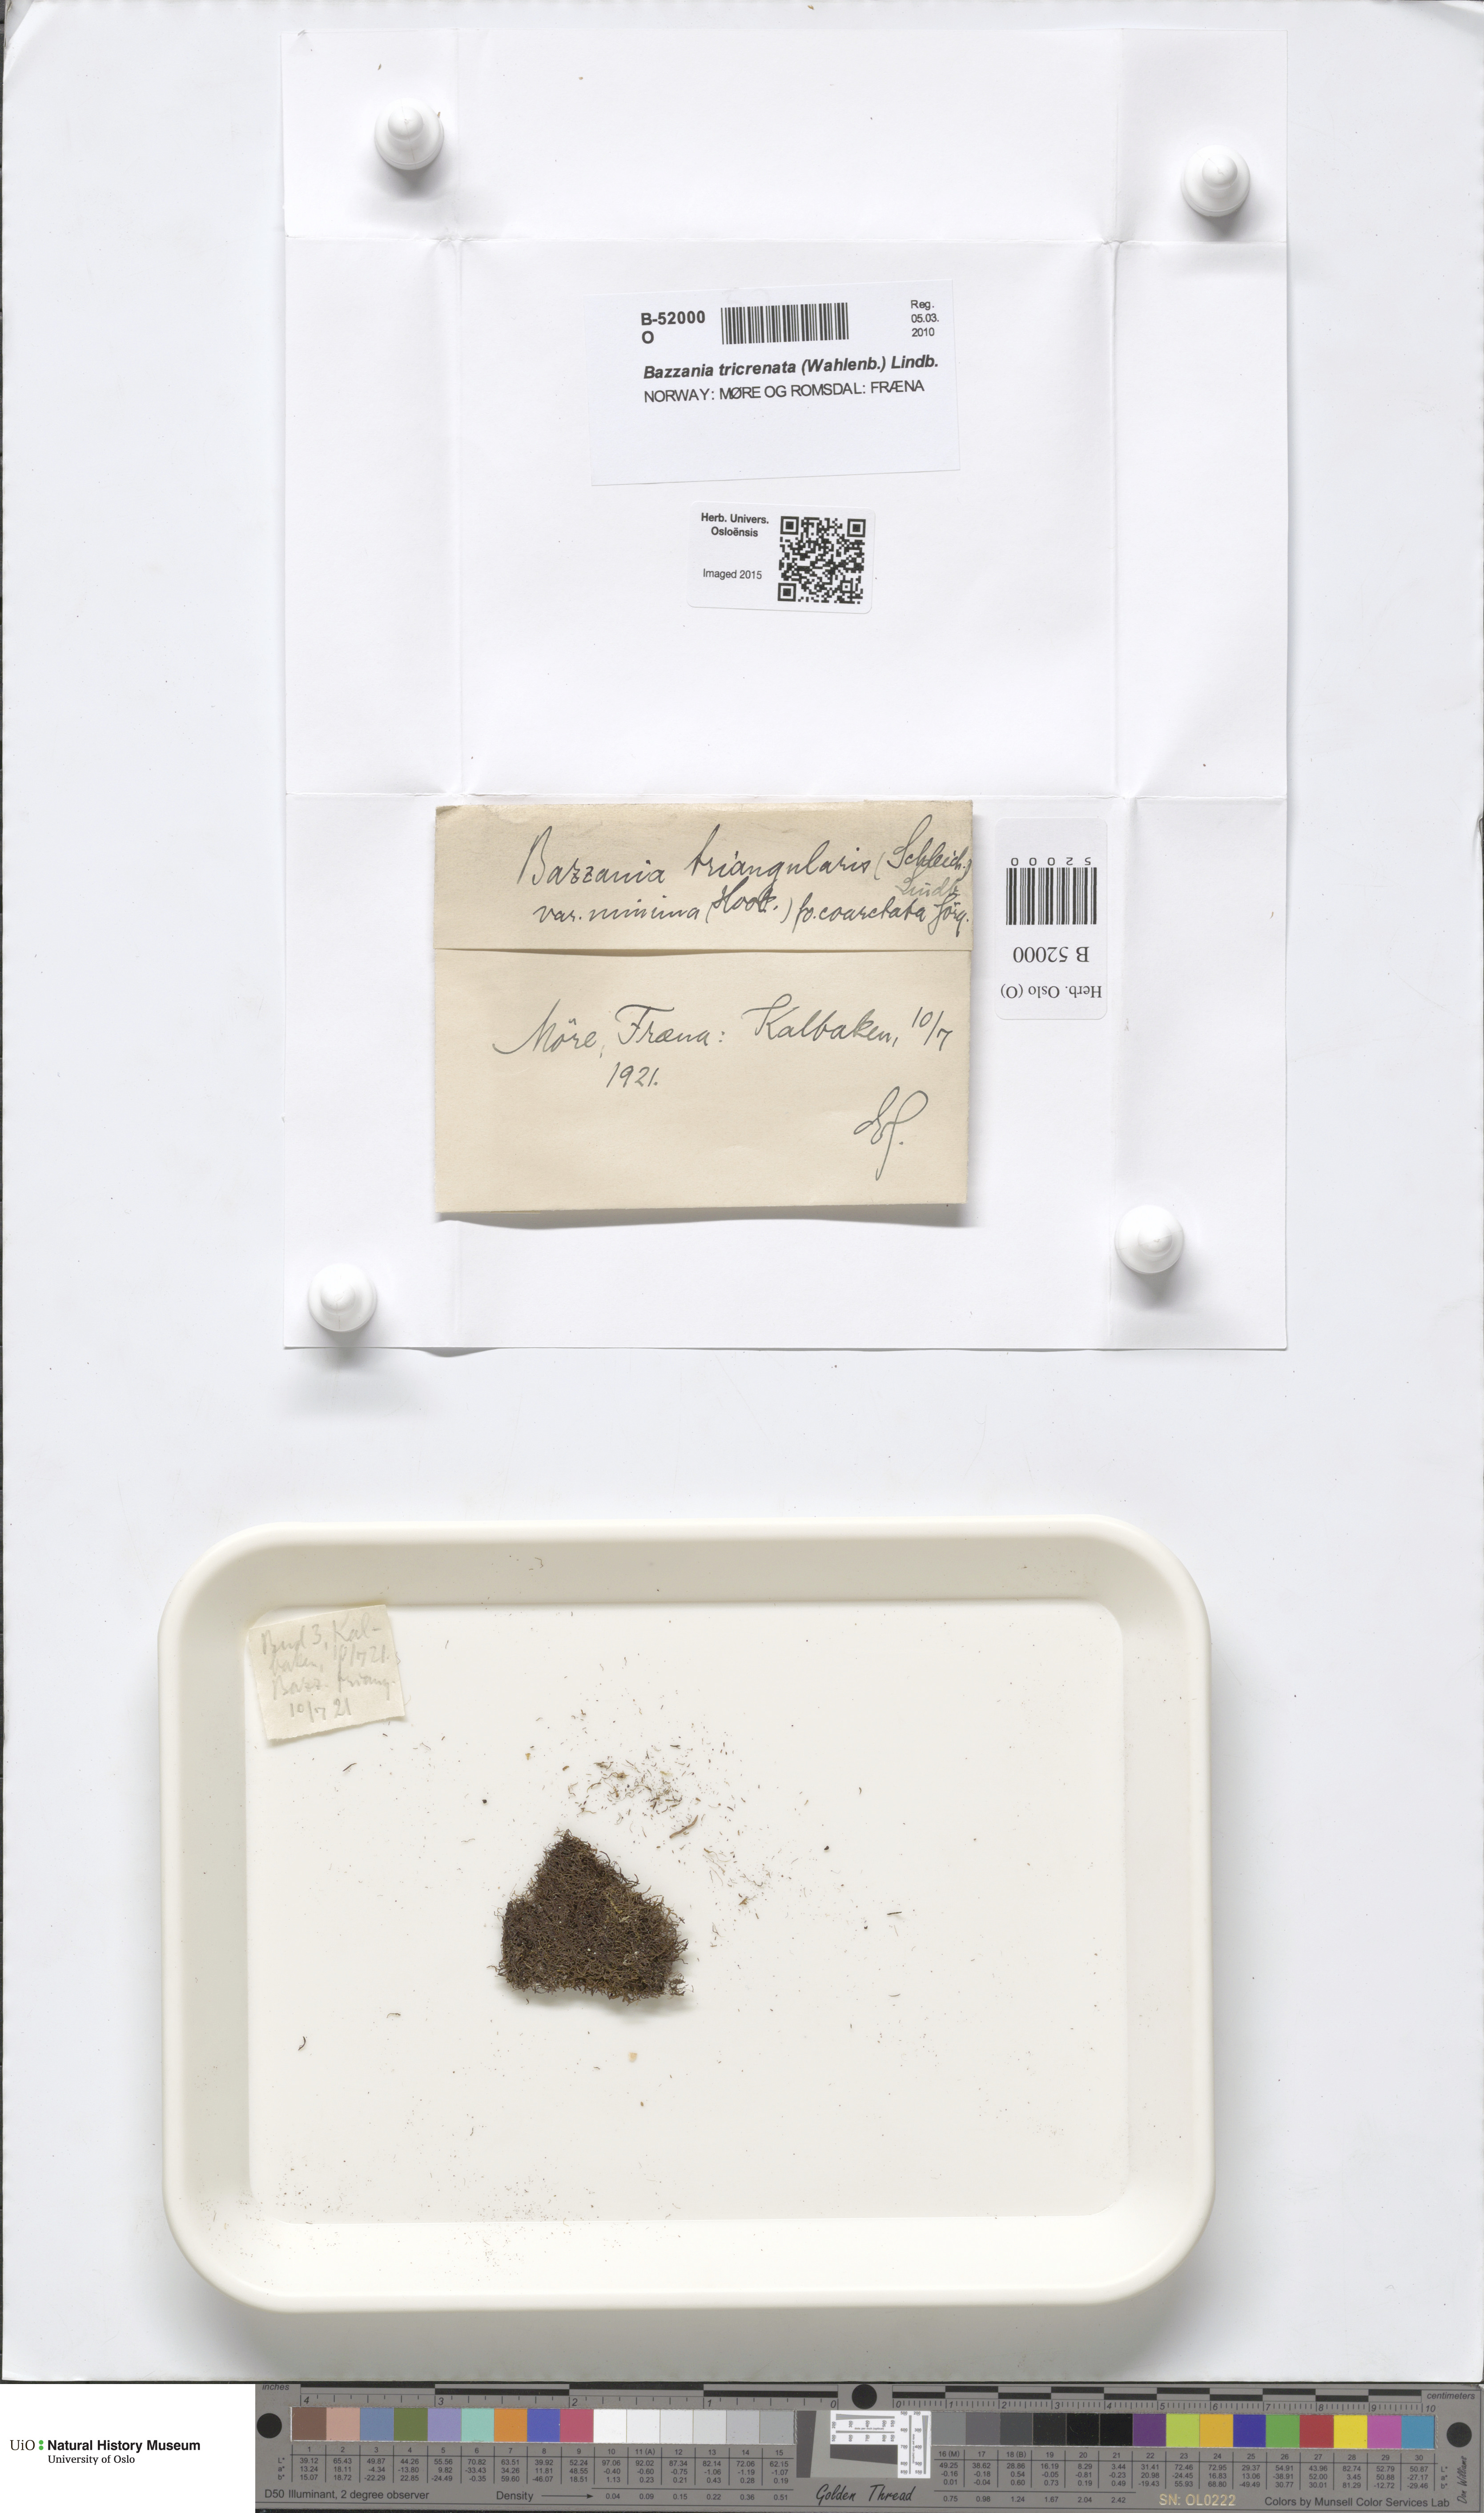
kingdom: Plantae
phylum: Marchantiophyta
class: Jungermanniopsida
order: Jungermanniales
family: Lepidoziaceae
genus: Bazzania
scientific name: Bazzania tricrenata
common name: Lesser whipwort
